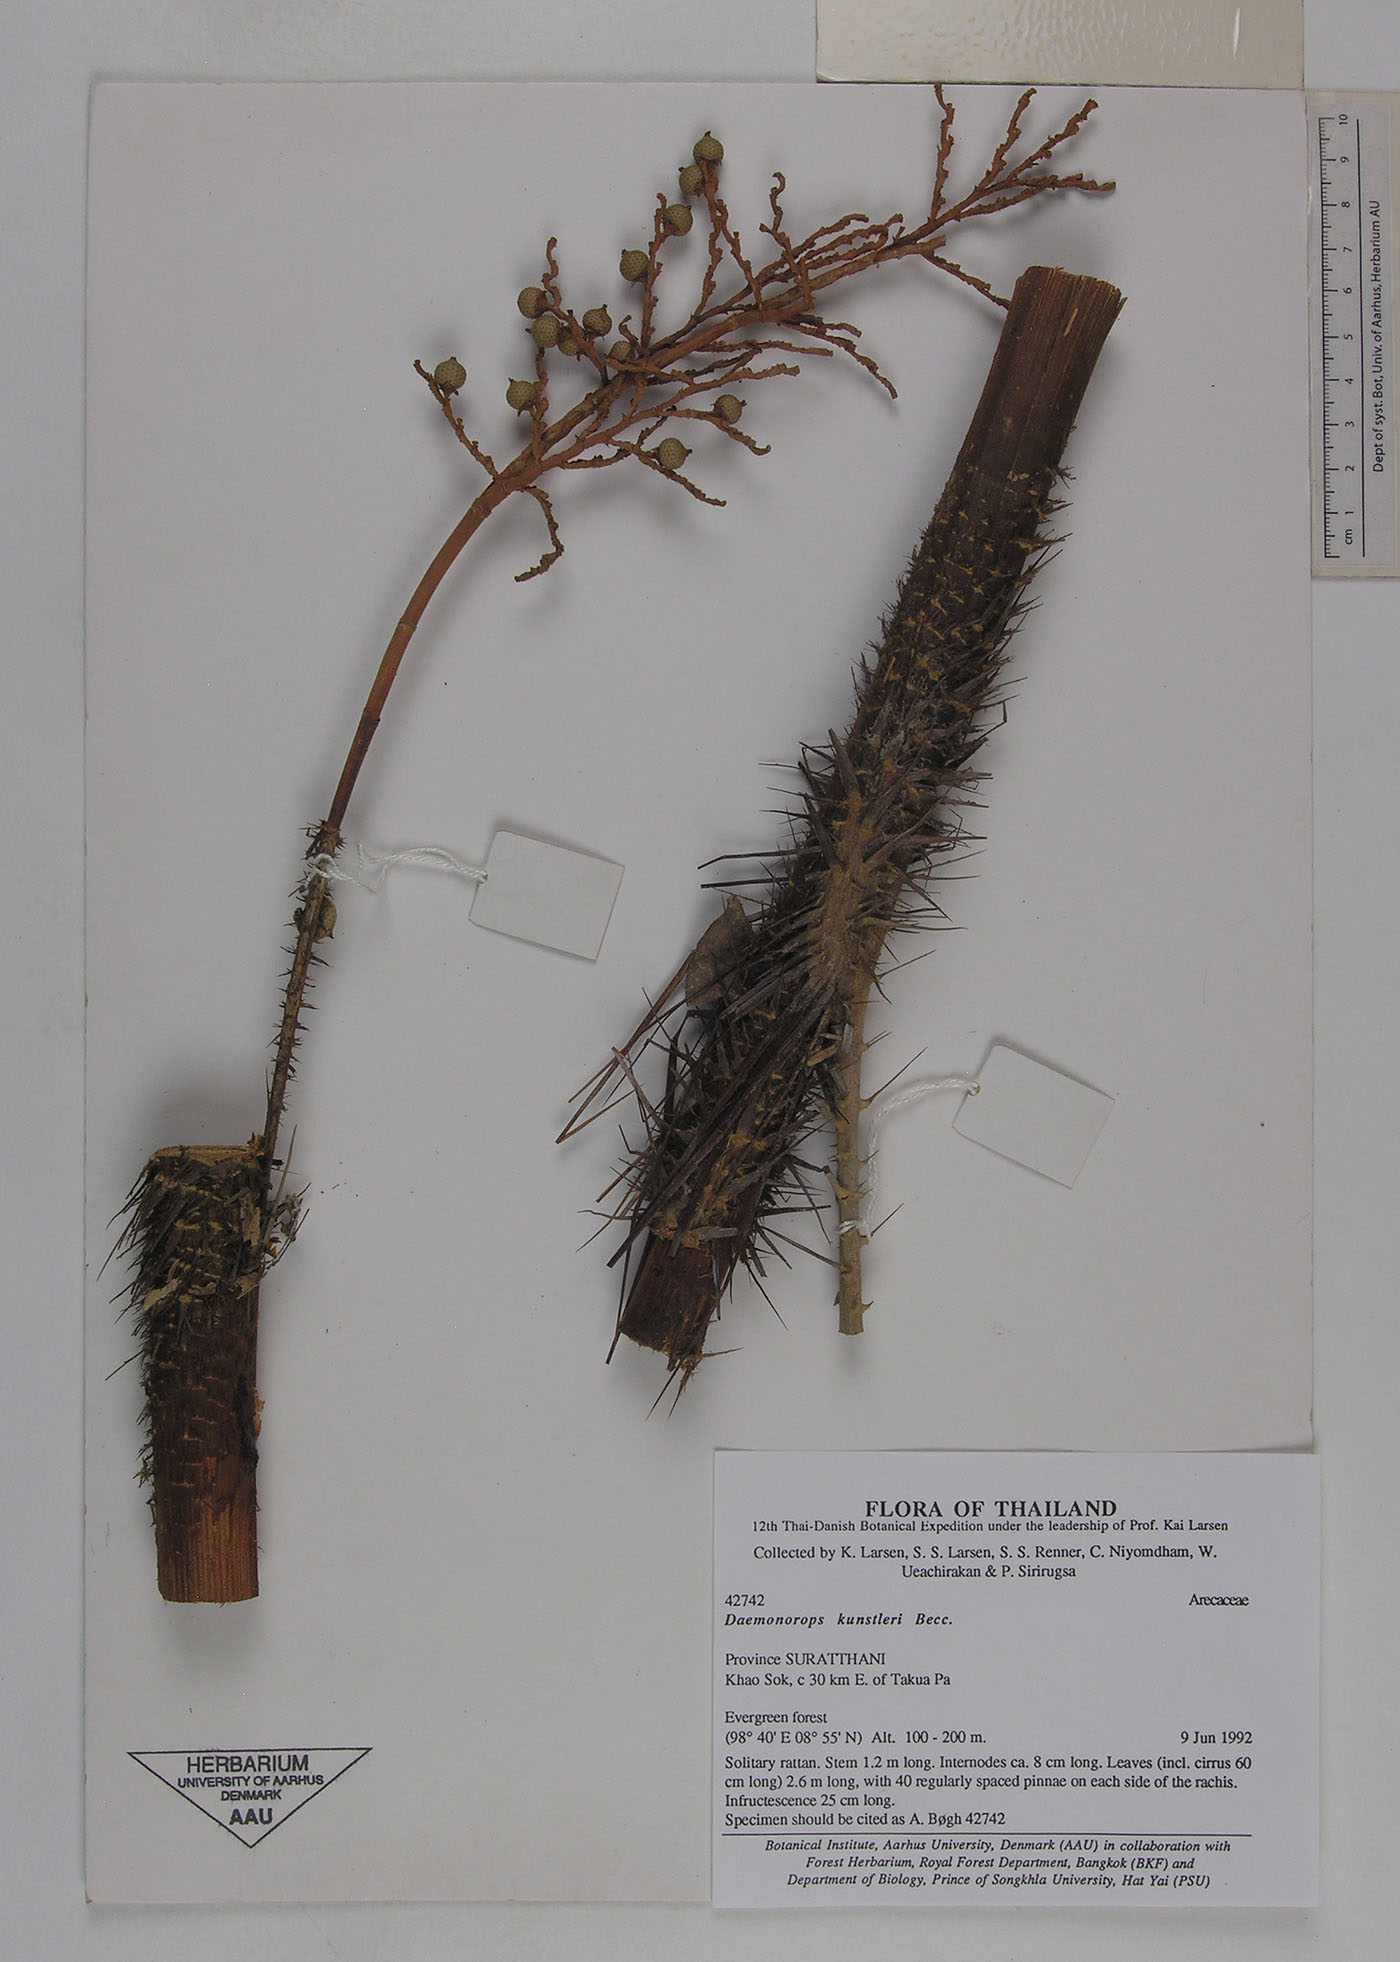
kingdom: Plantae
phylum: Tracheophyta
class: Liliopsida
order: Arecales
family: Arecaceae
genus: Calamus
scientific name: Calamus kunstleri
